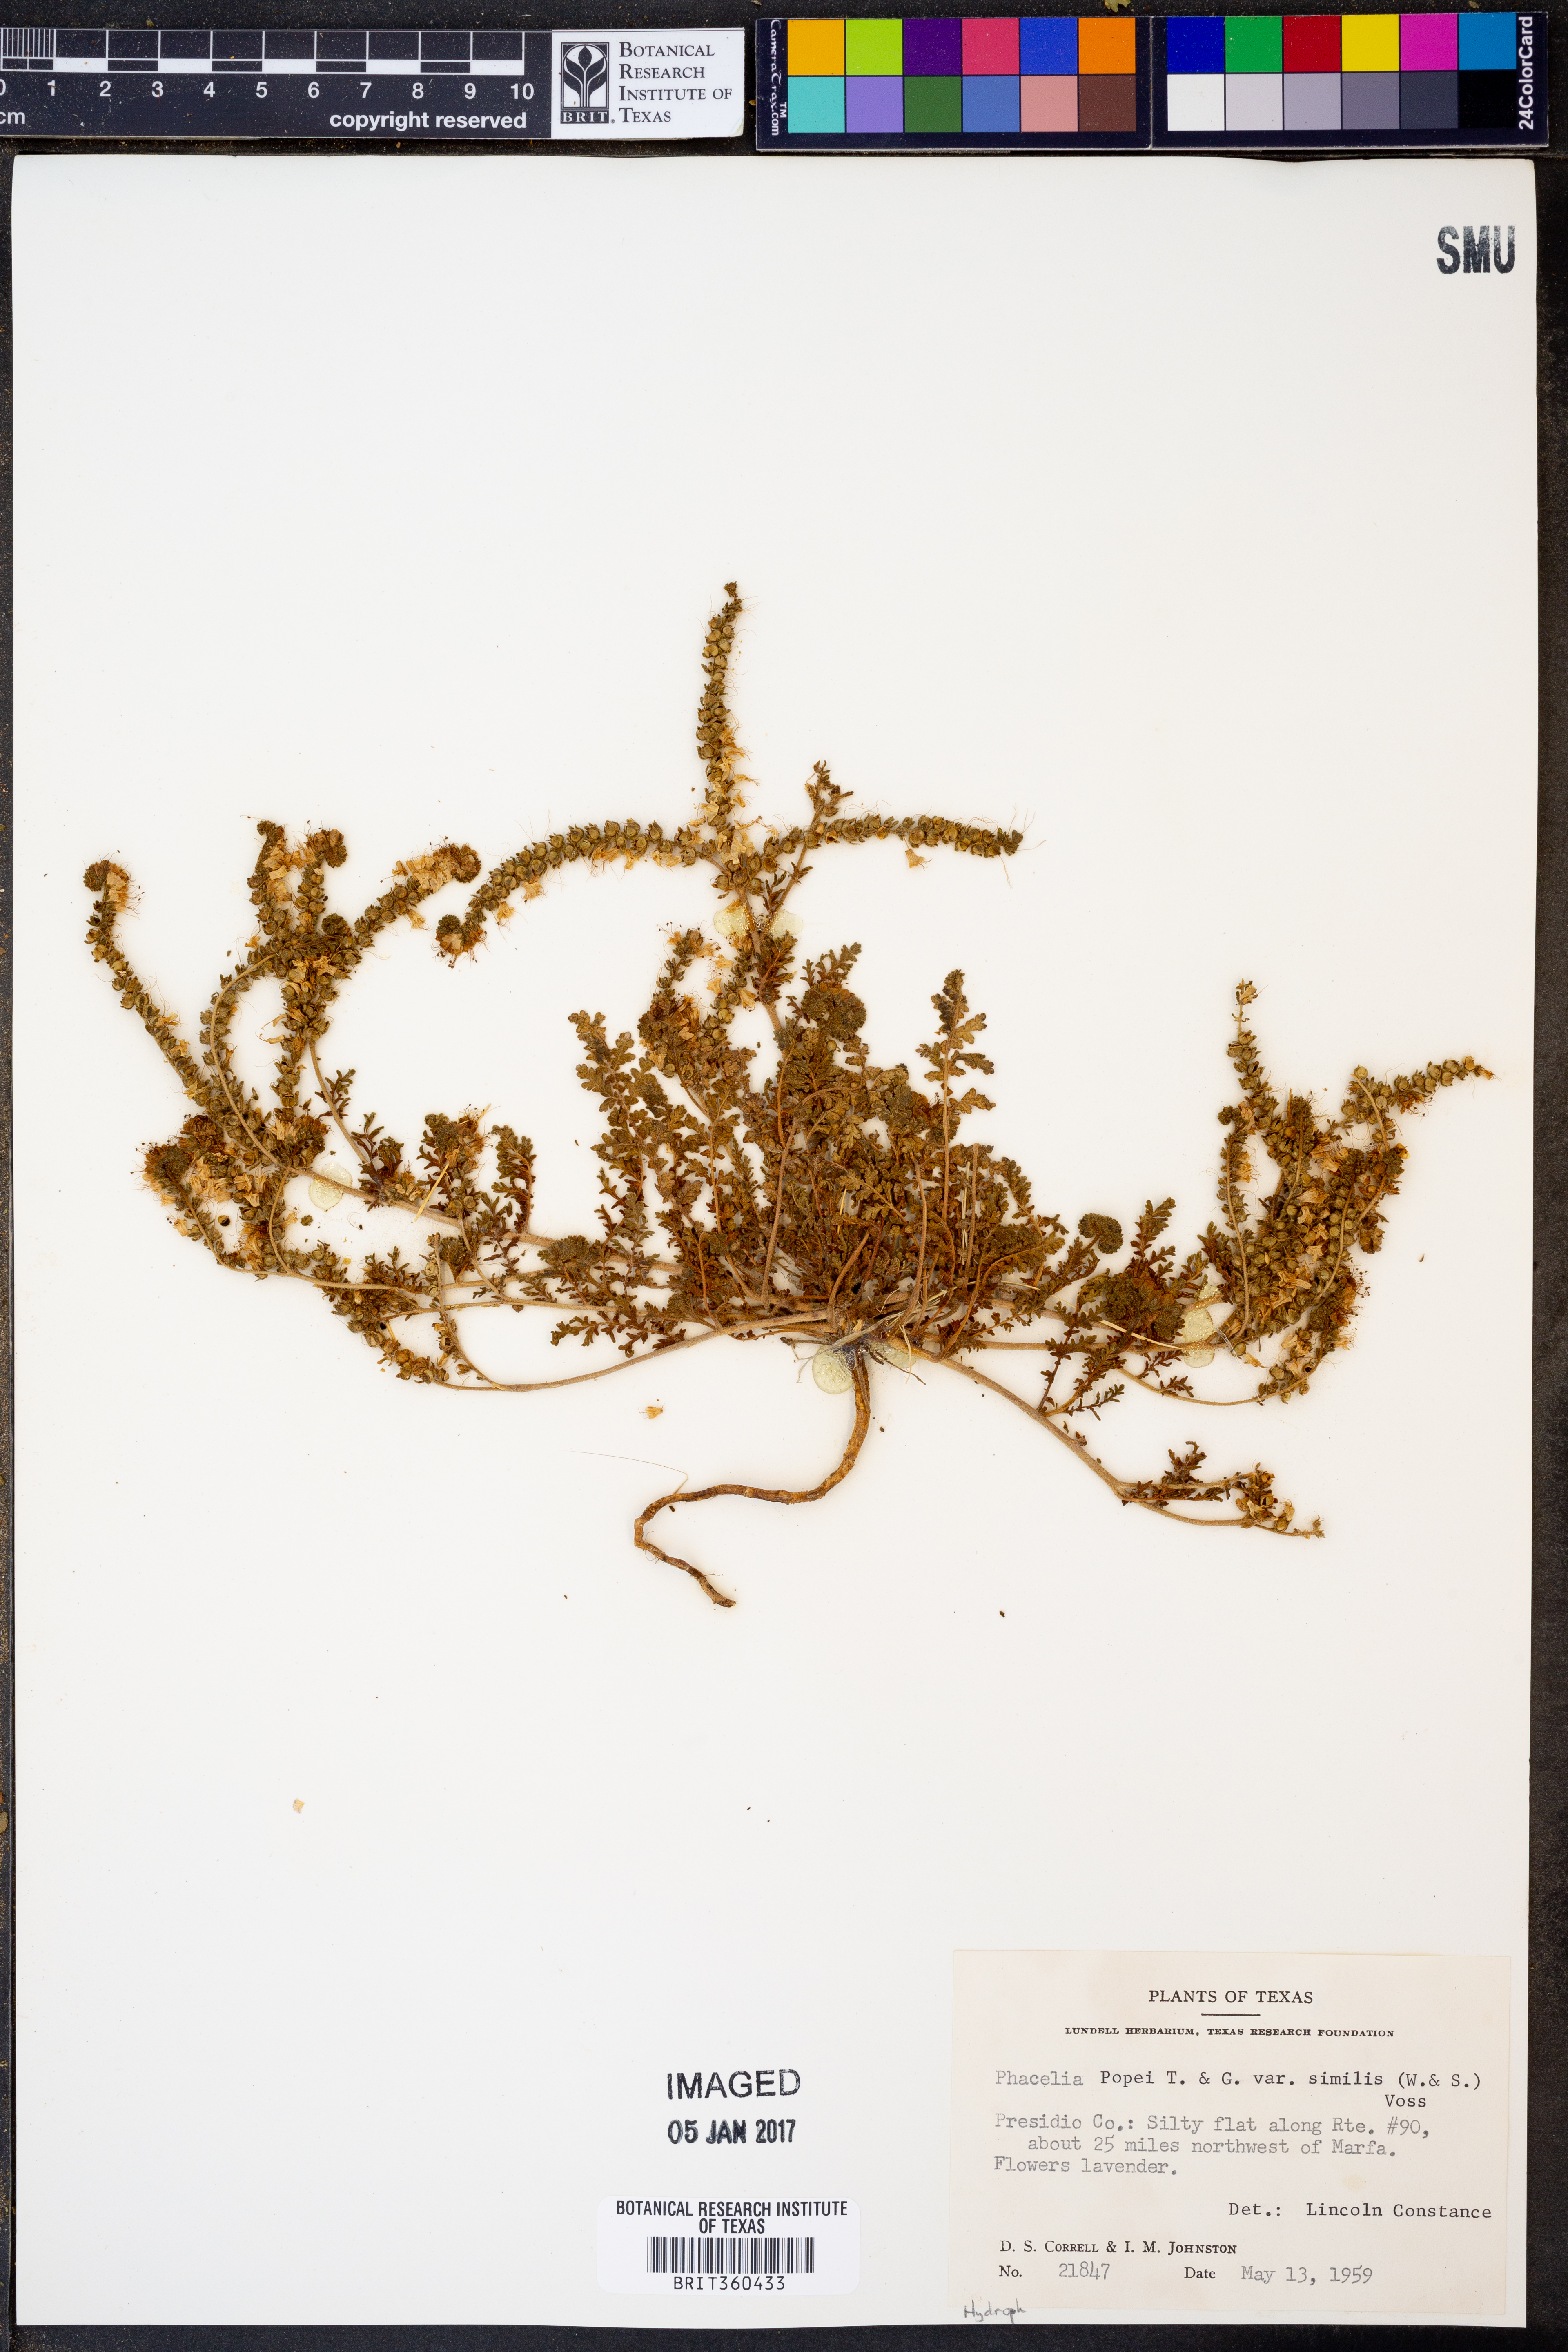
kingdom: Plantae
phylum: Tracheophyta
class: Magnoliopsida
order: Boraginales
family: Hydrophyllaceae
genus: Phacelia
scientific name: Phacelia popei
